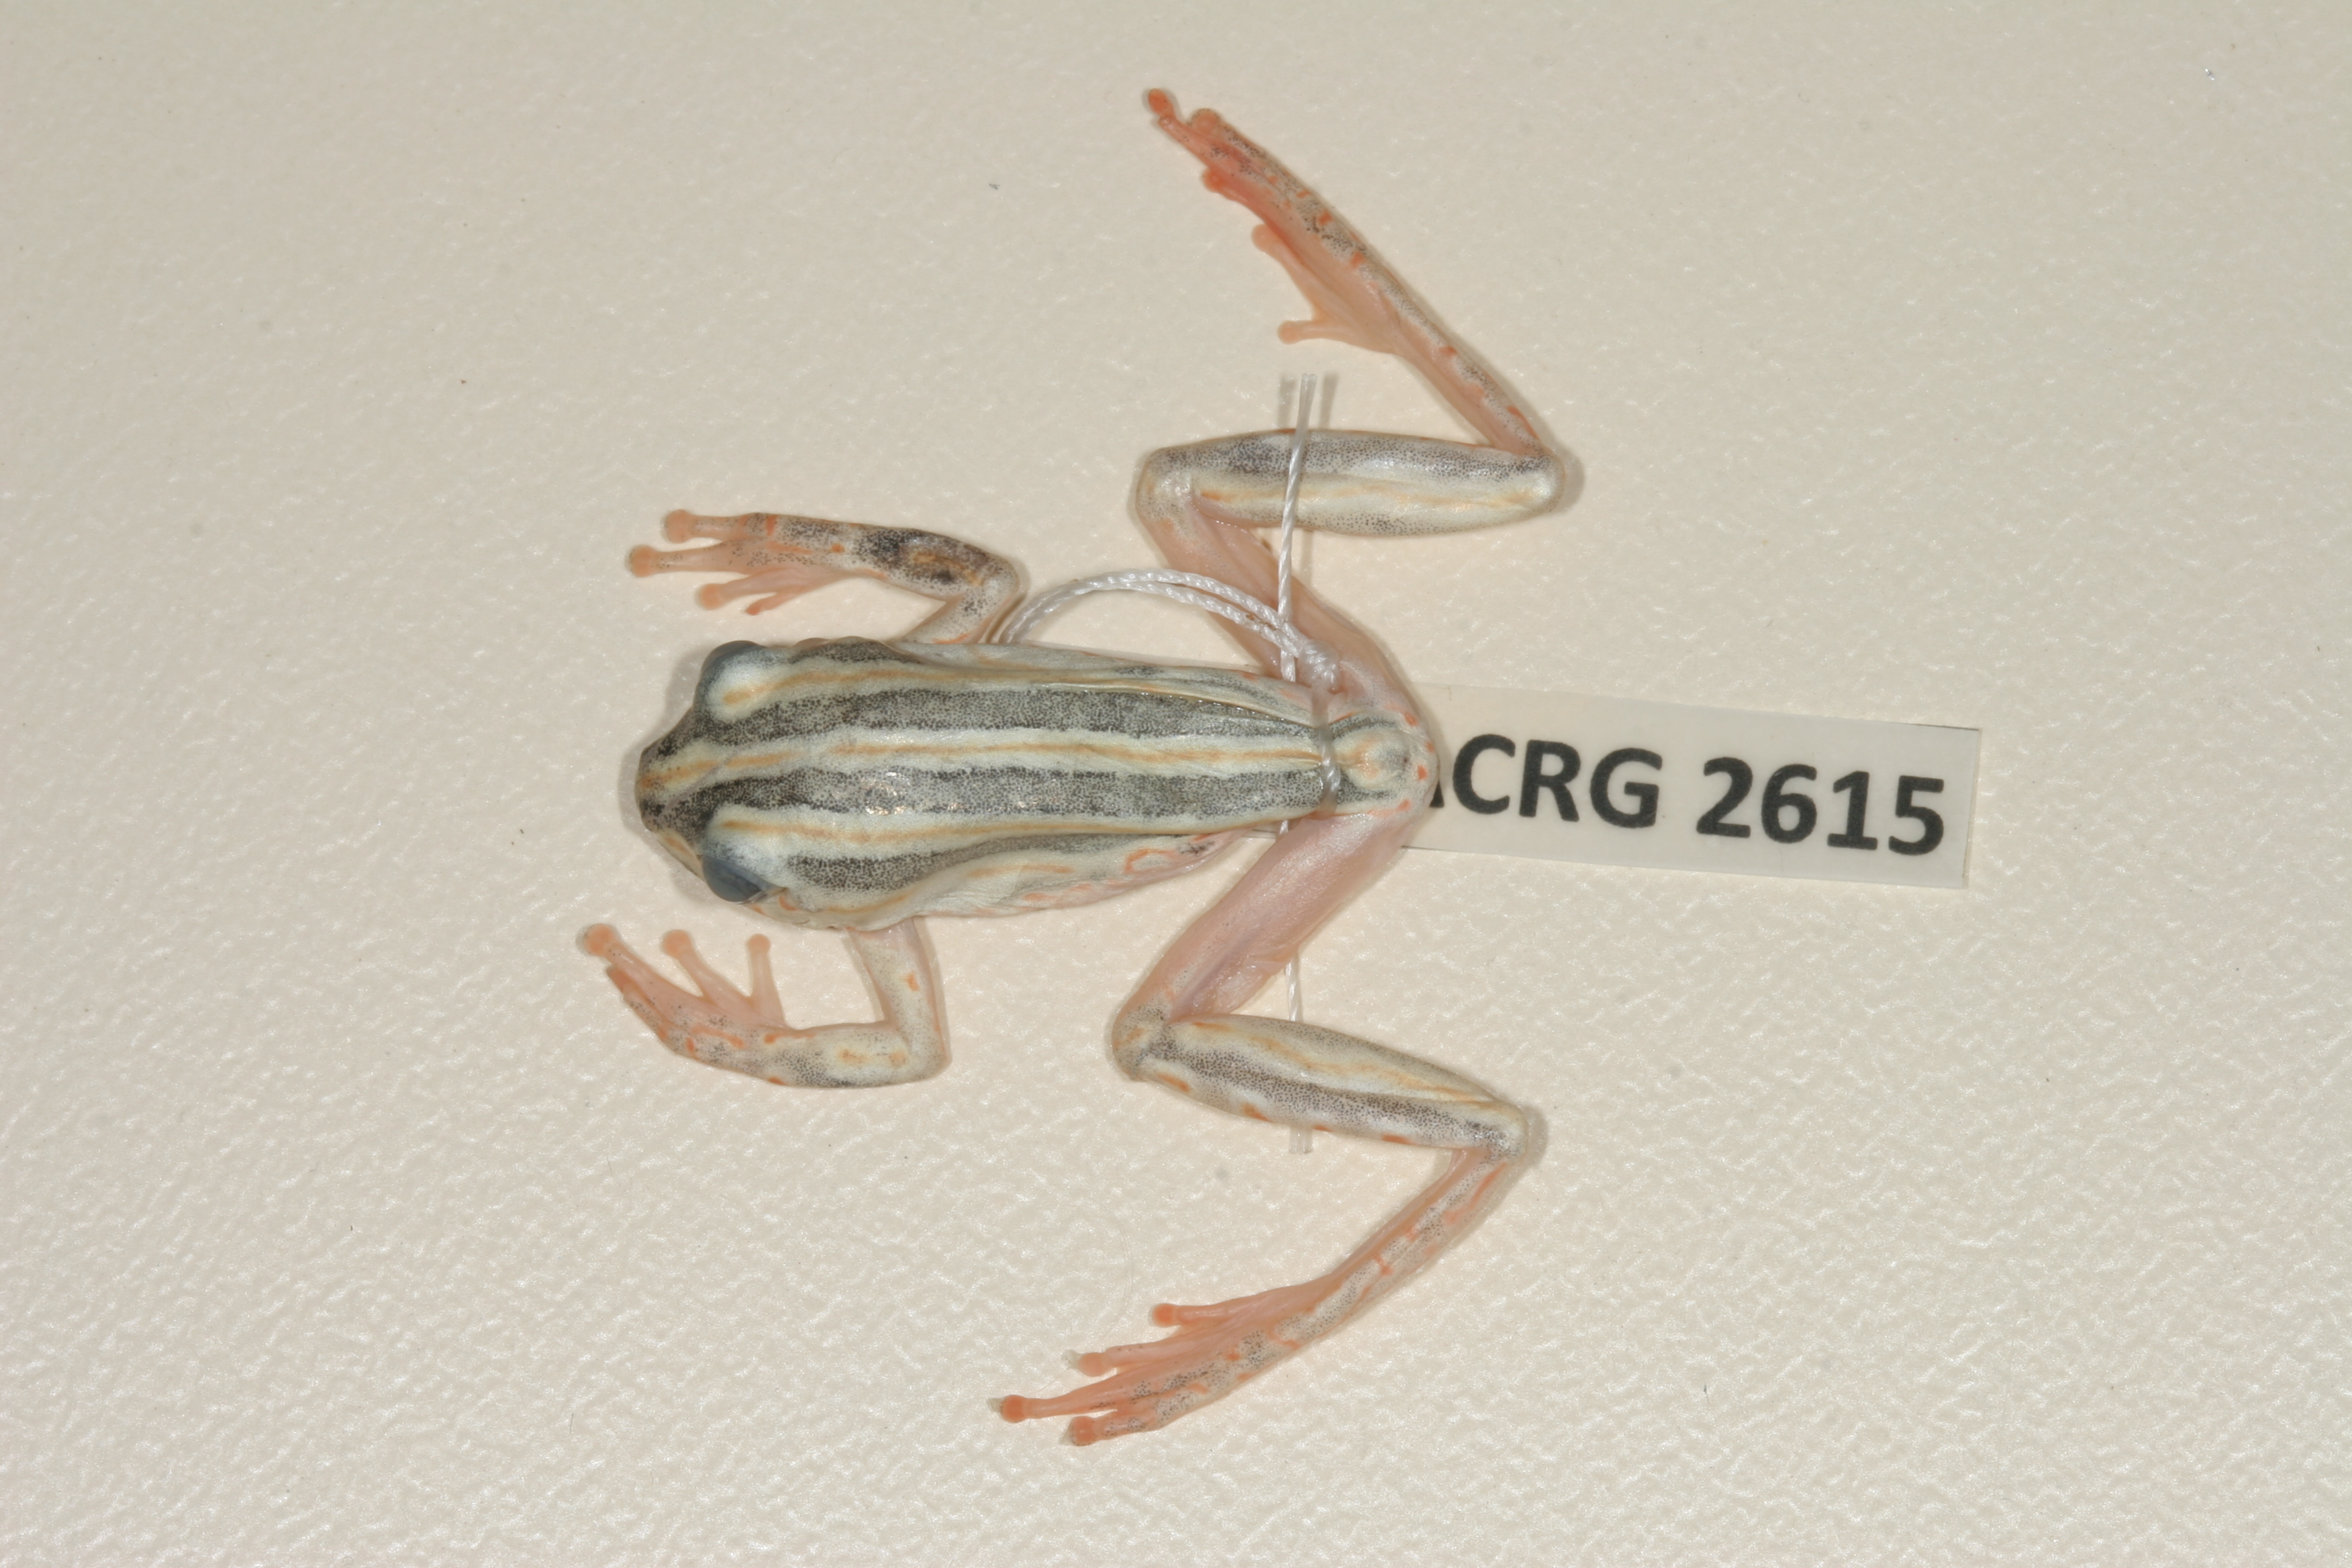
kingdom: Animalia
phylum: Chordata
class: Amphibia
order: Anura
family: Hyperoliidae
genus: Hyperolius
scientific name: Hyperolius marmoratus
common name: Painted reed frog
